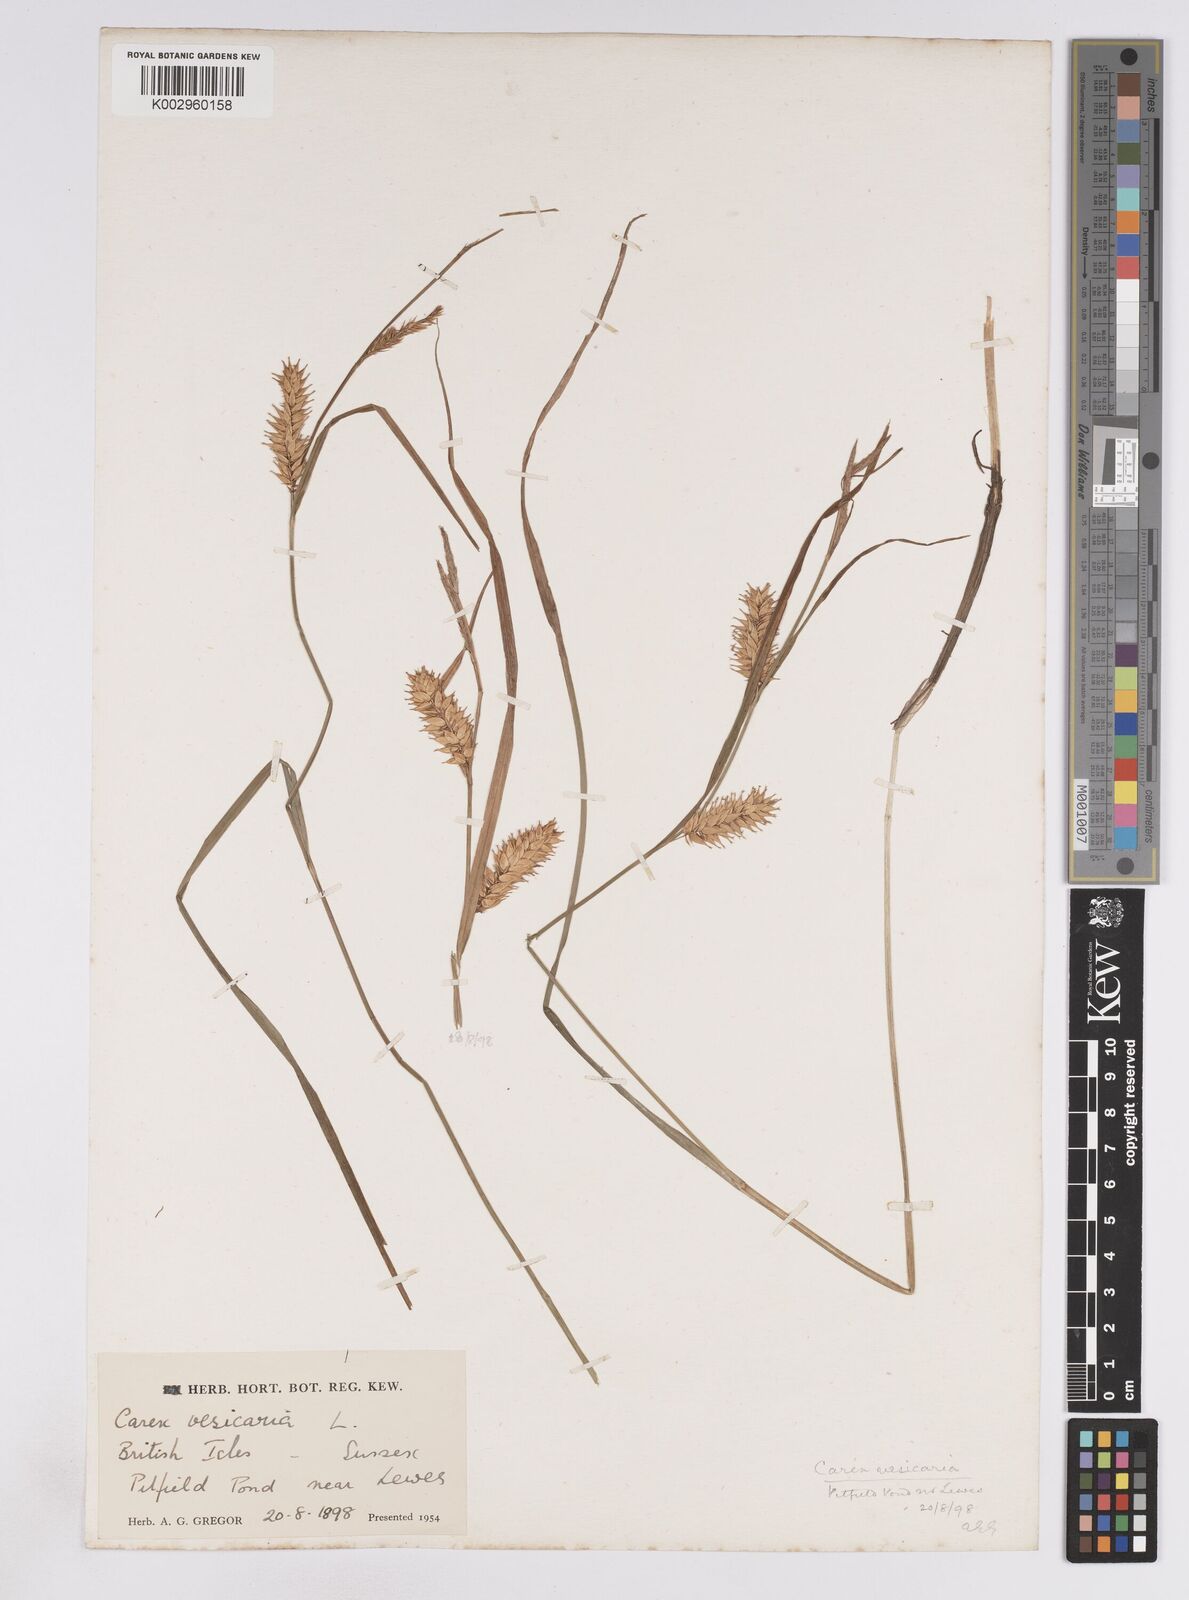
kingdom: Plantae
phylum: Tracheophyta
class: Liliopsida
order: Poales
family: Cyperaceae
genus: Carex
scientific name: Carex vesicaria
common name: Bladder-sedge
